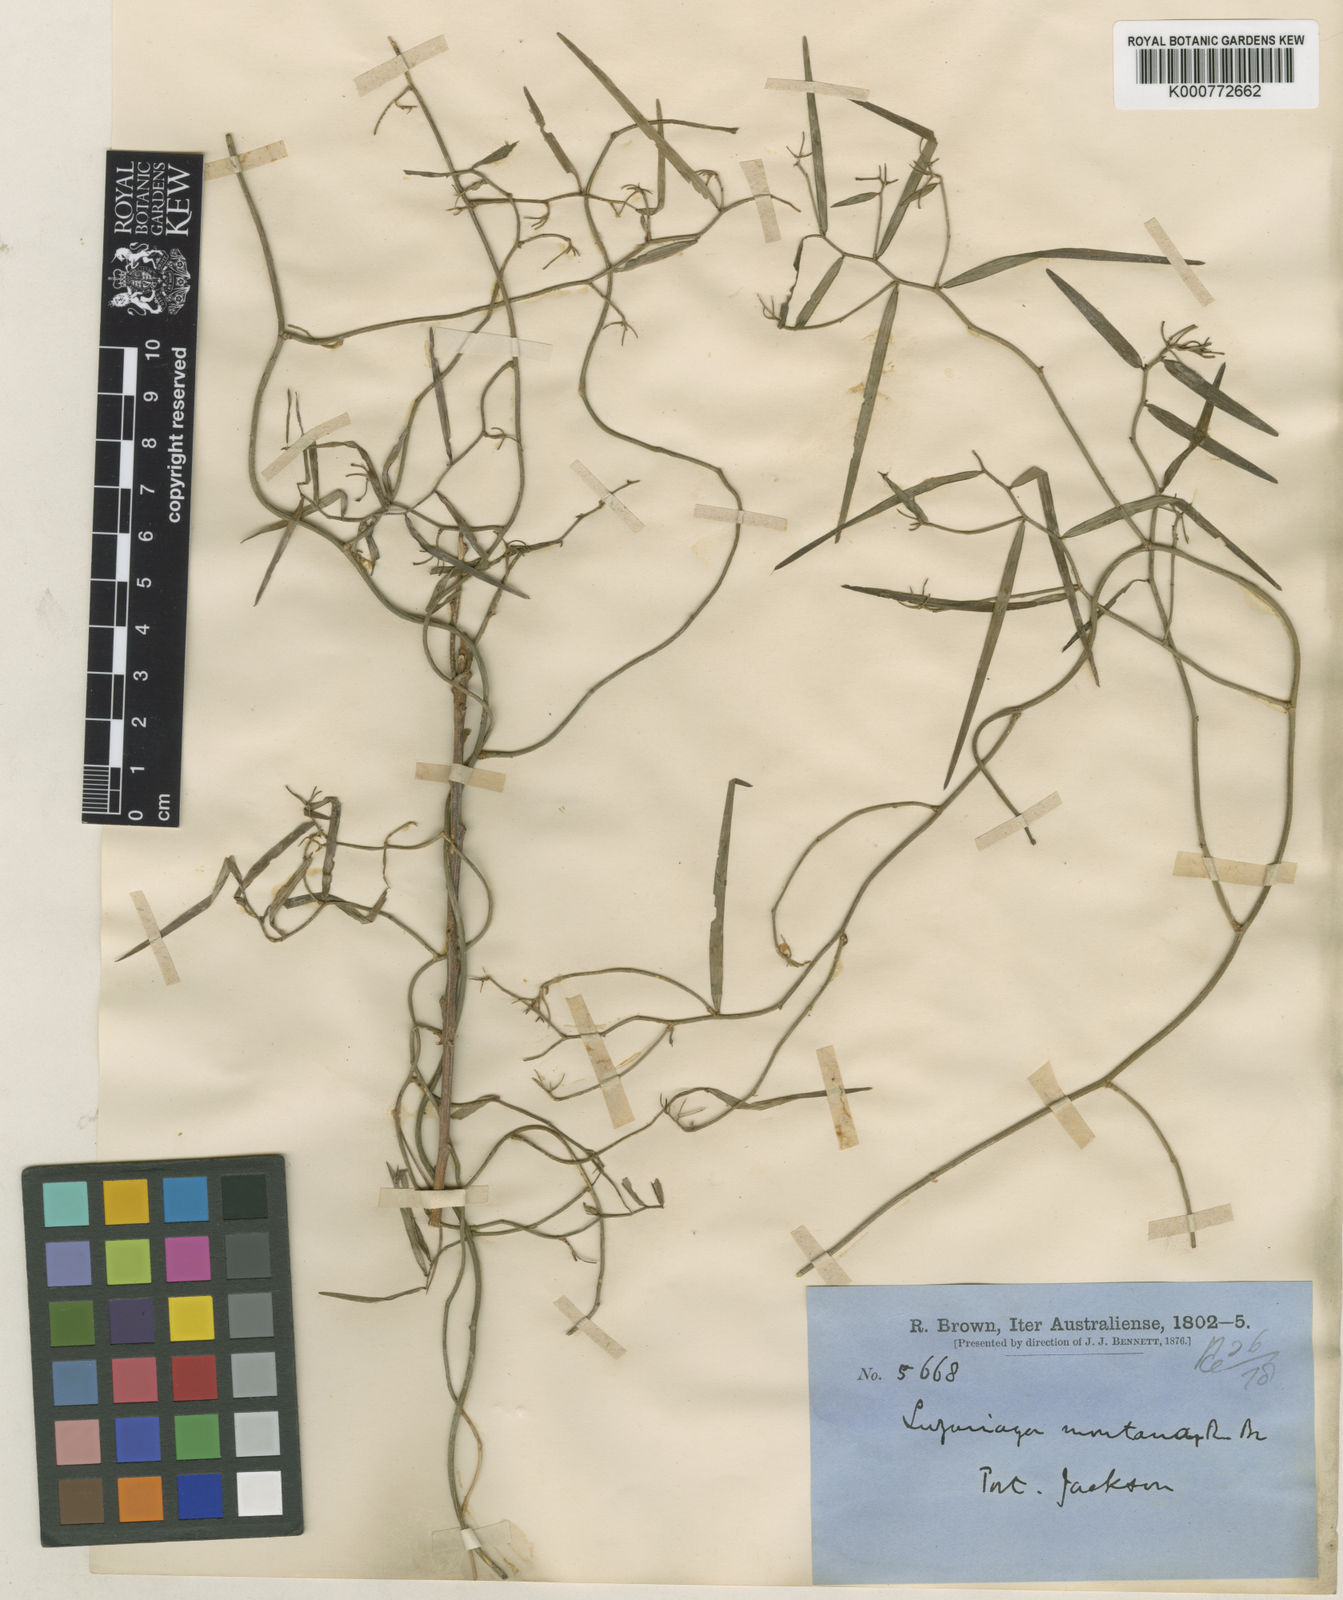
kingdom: Plantae
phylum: Tracheophyta
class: Liliopsida
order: Asparagales
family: Asphodelaceae
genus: Geitonoplesium
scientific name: Geitonoplesium
